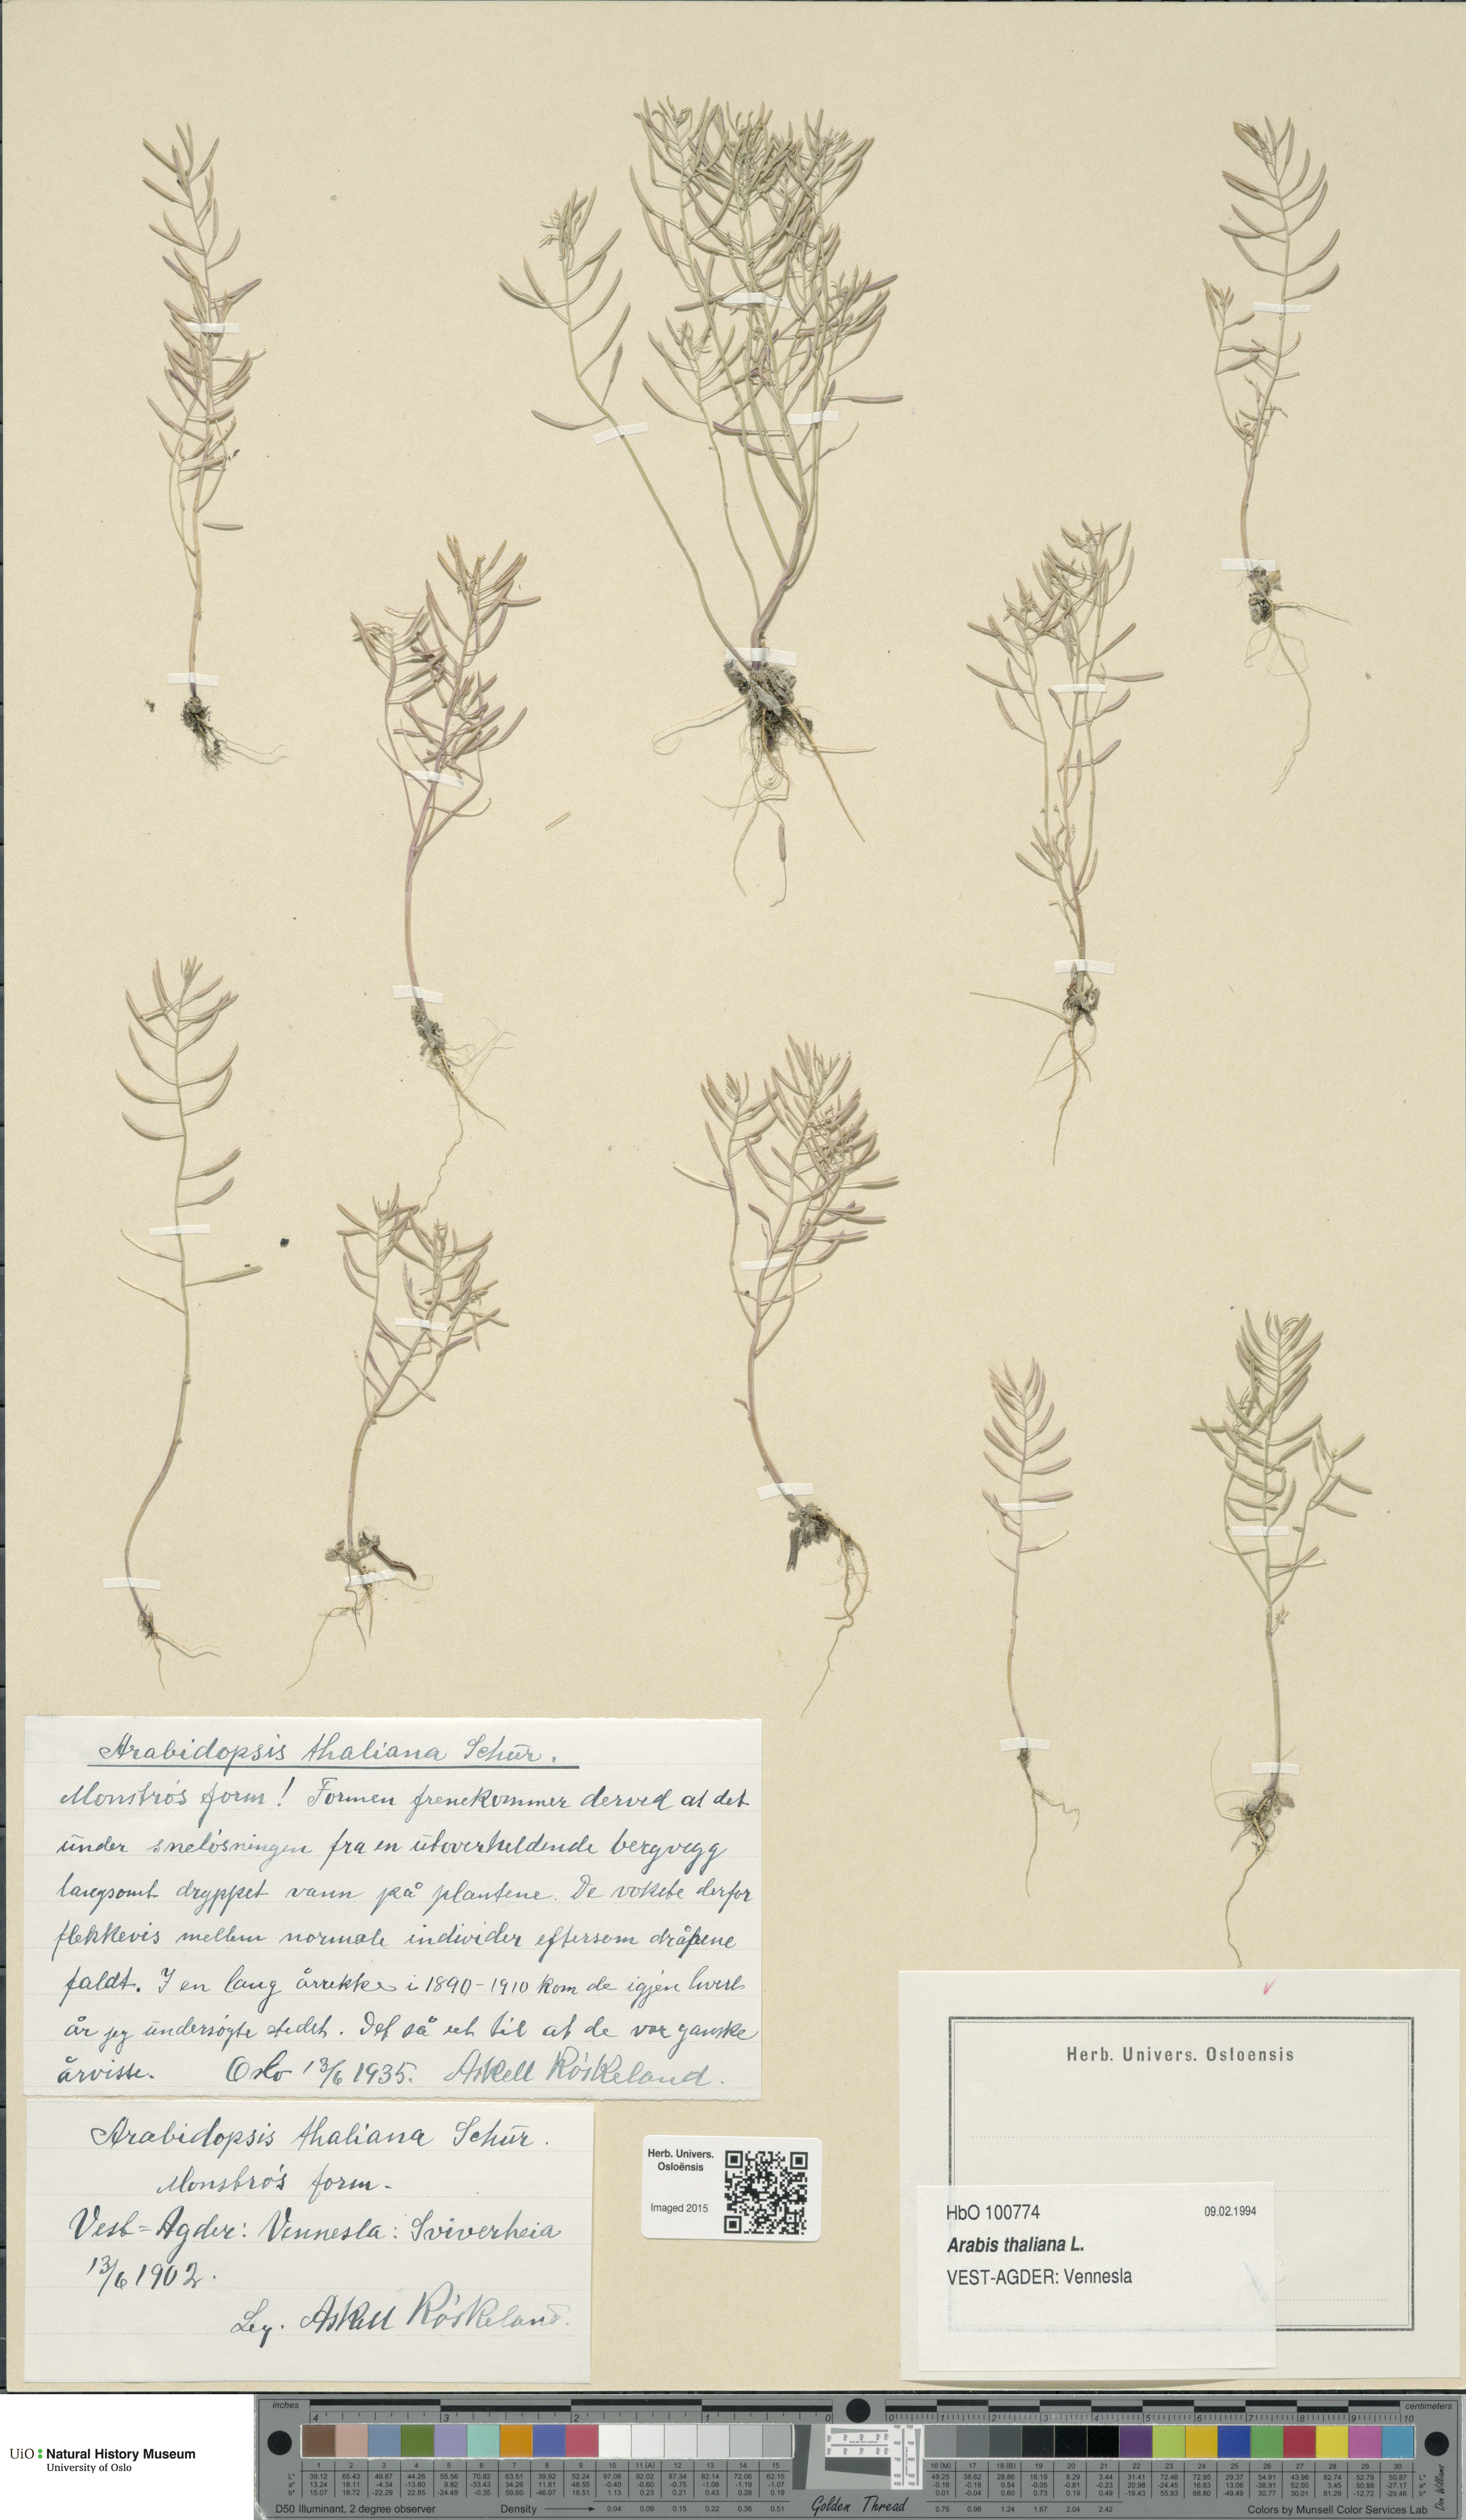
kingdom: Plantae
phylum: Tracheophyta
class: Magnoliopsida
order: Brassicales
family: Brassicaceae
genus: Arabidopsis
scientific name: Arabidopsis thaliana
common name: Thale cress
